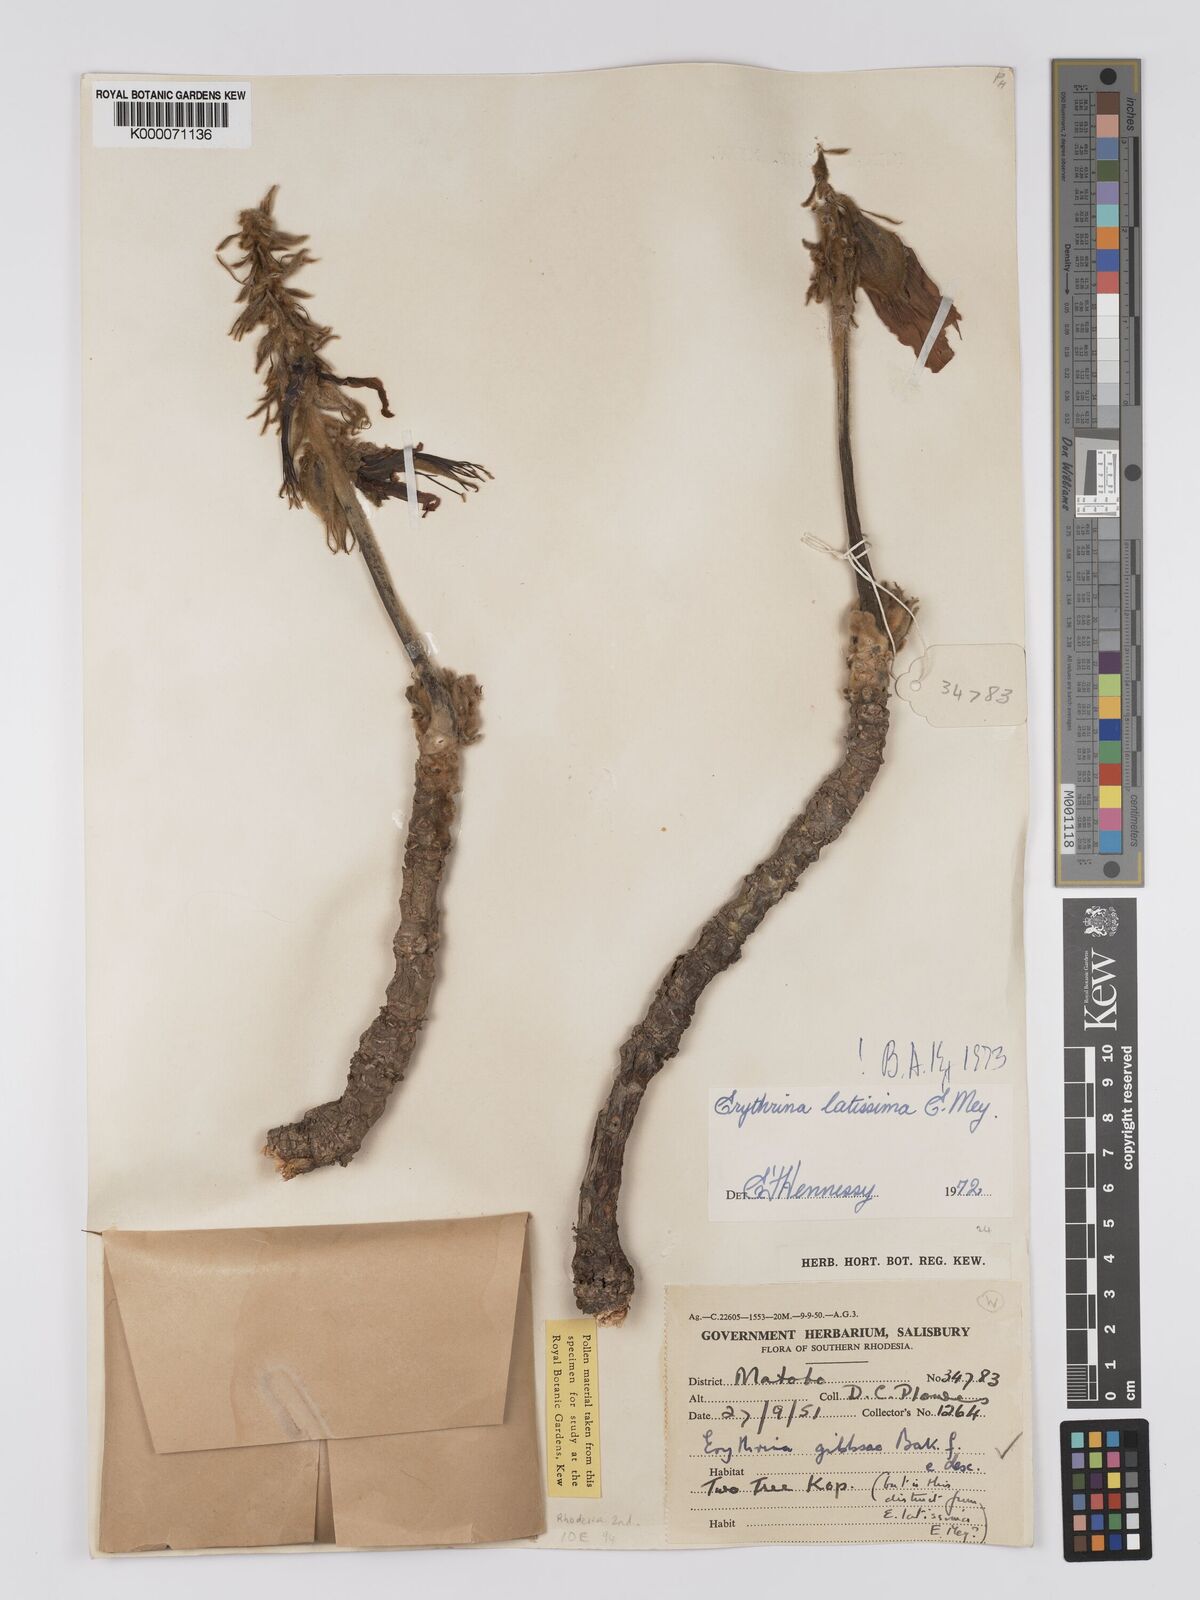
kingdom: Plantae
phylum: Tracheophyta
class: Magnoliopsida
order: Fabales
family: Fabaceae
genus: Erythrina
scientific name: Erythrina latissima
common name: Broad-leaved coral tree
